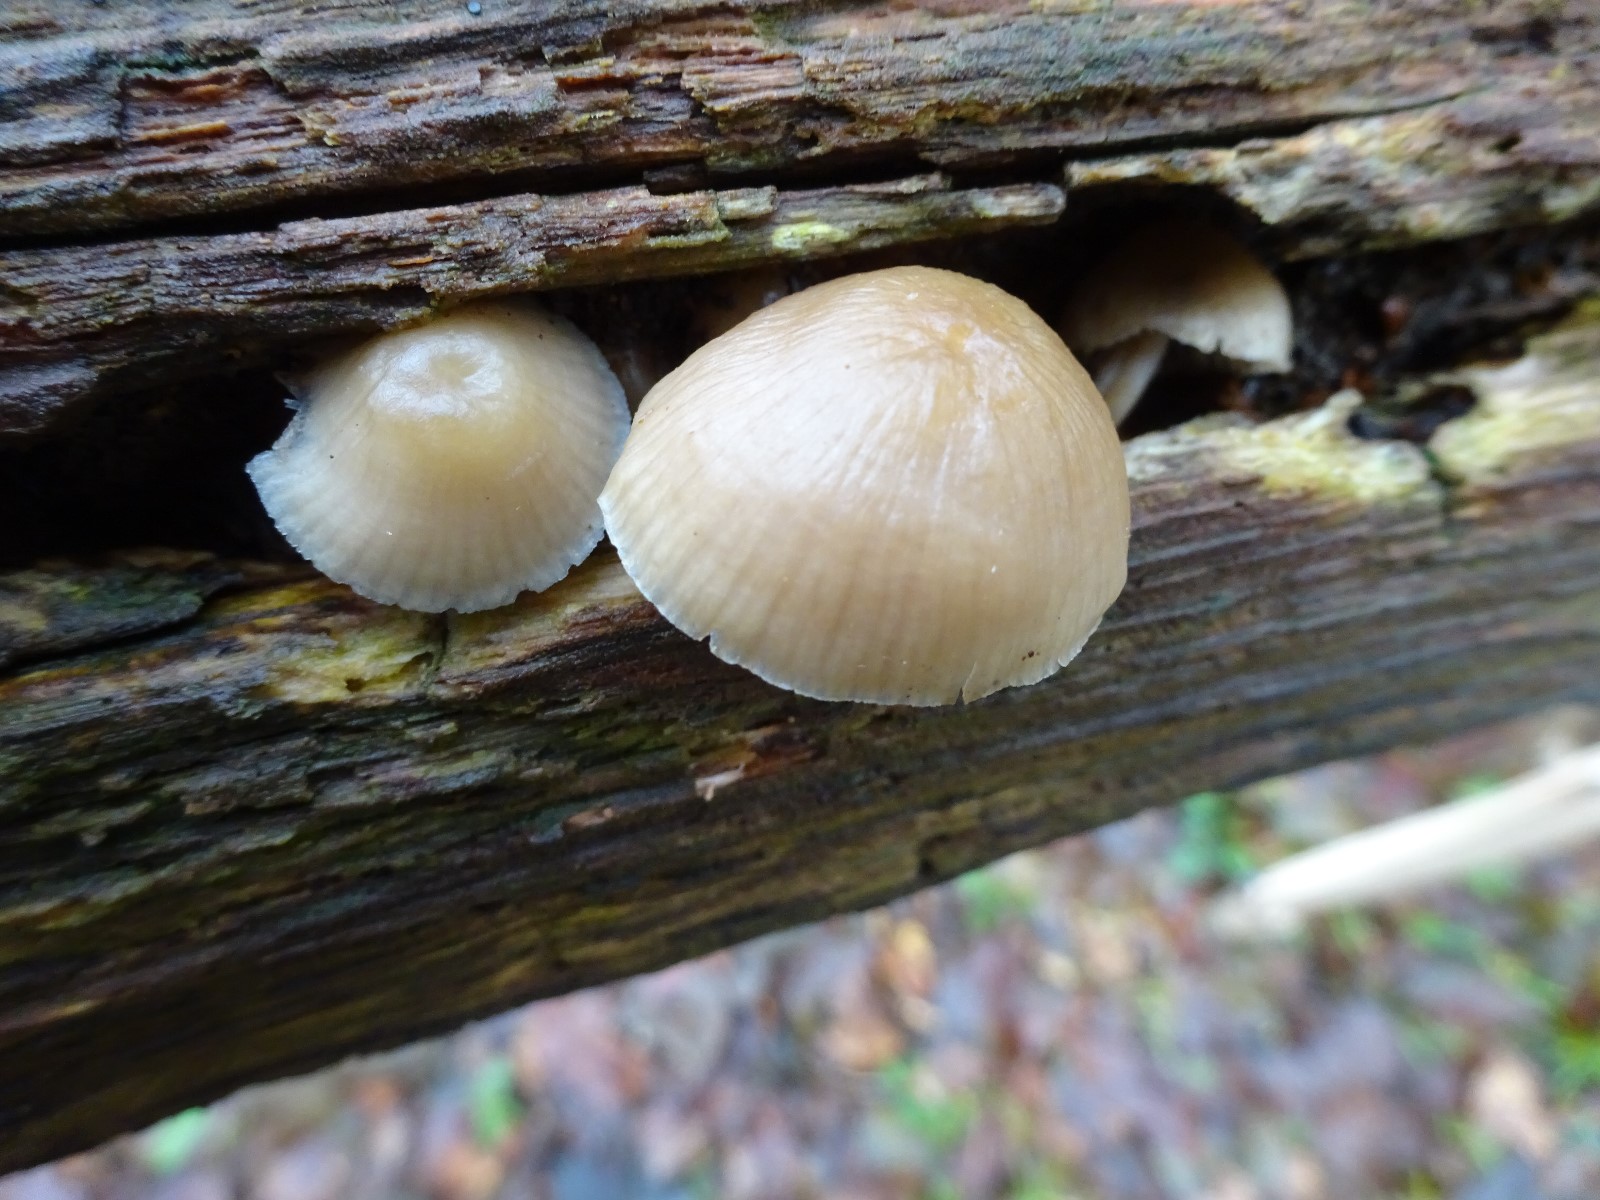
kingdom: Fungi
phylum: Basidiomycota
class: Agaricomycetes
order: Agaricales
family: Mycenaceae
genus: Mycena
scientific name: Mycena galericulata
